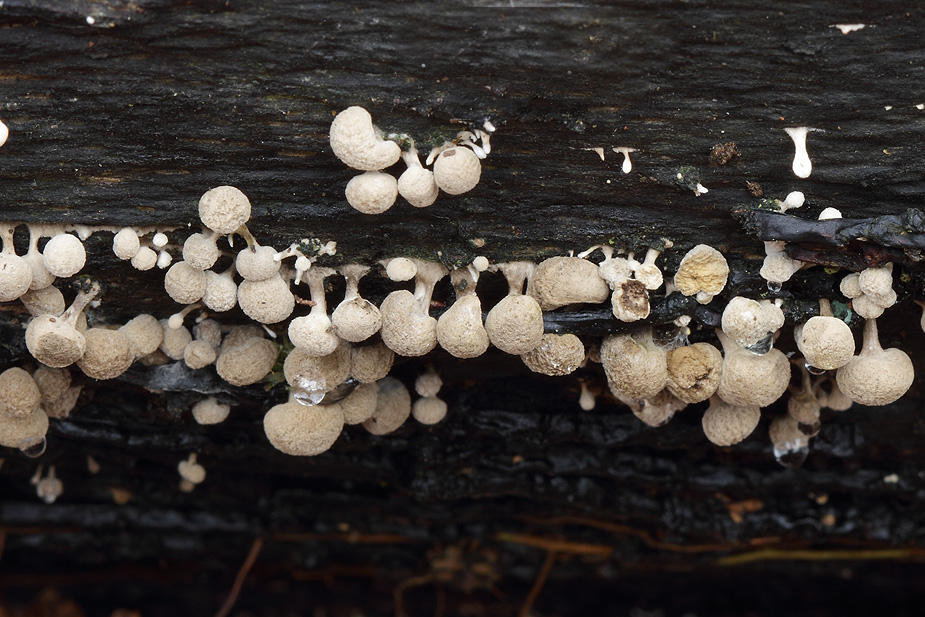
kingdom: Fungi
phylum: Basidiomycota
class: Atractiellomycetes
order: Atractiellales
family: Phleogenaceae
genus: Phleogena
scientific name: Phleogena faginea
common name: pudderkølle
